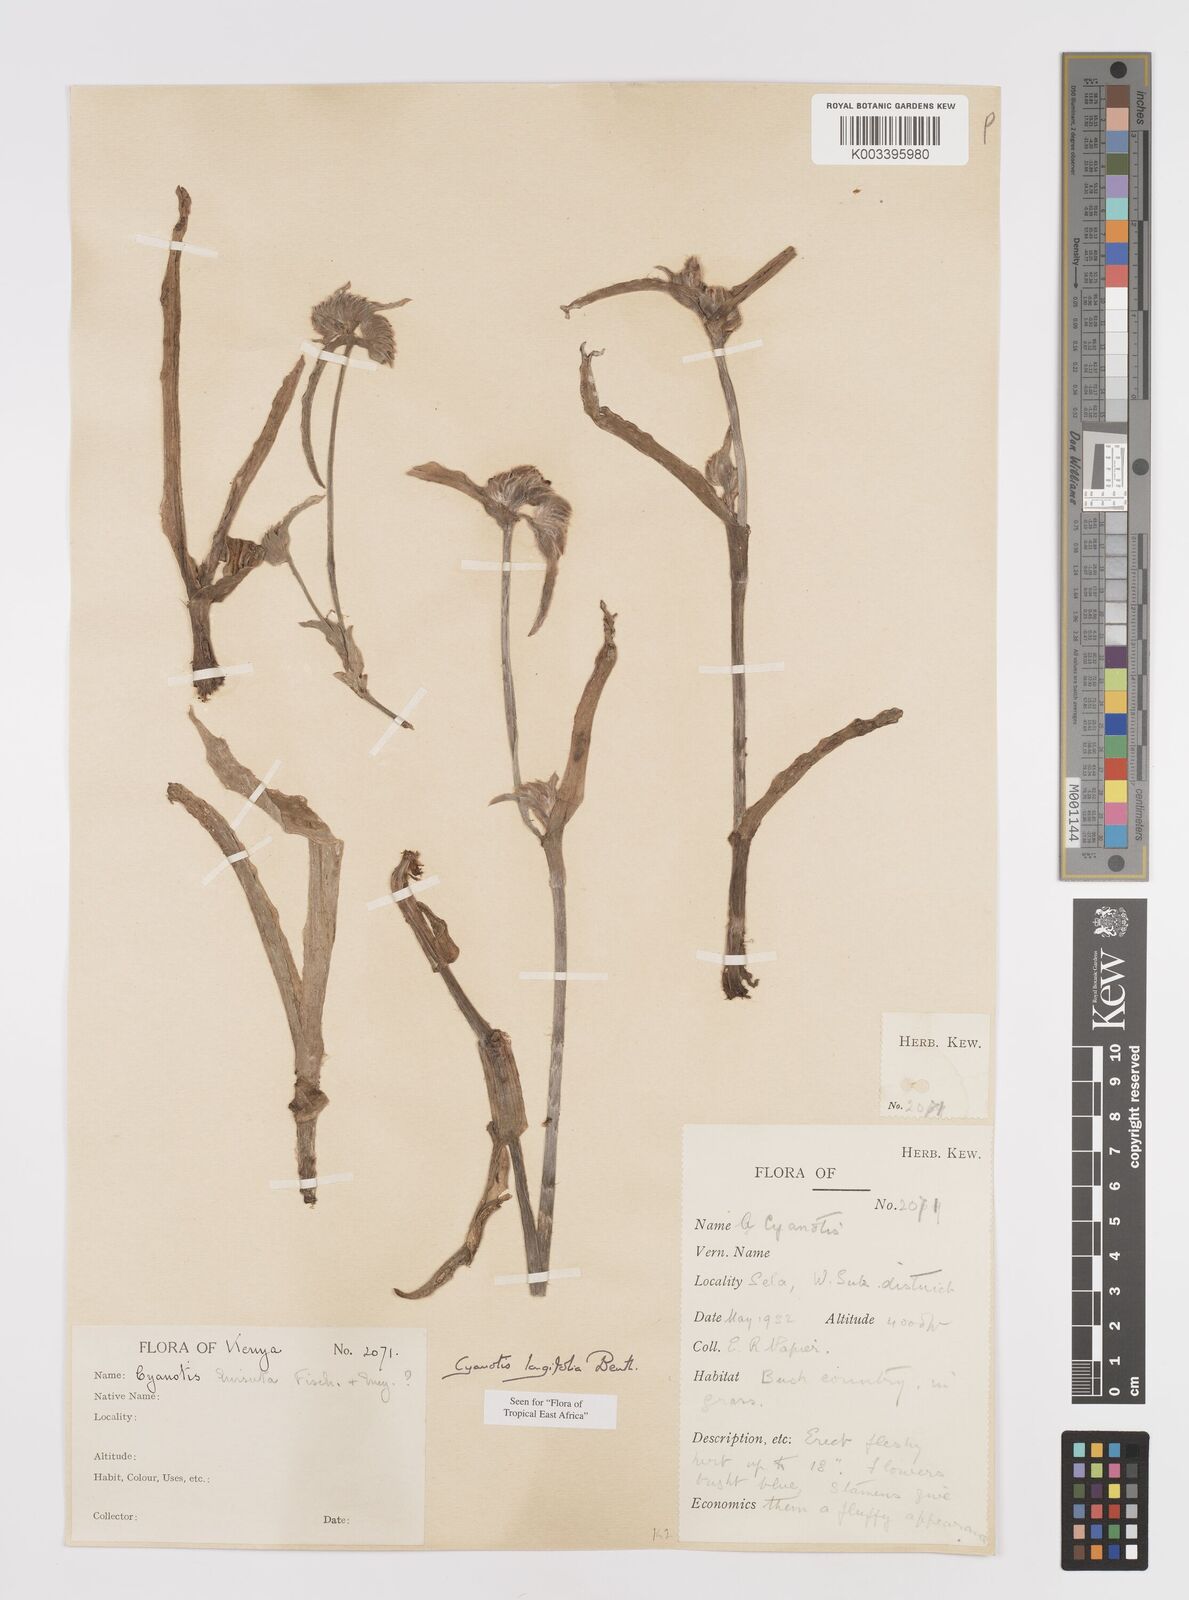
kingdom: Plantae
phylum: Tracheophyta
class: Liliopsida
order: Commelinales
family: Commelinaceae
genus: Cyanotis
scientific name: Cyanotis longifolia
